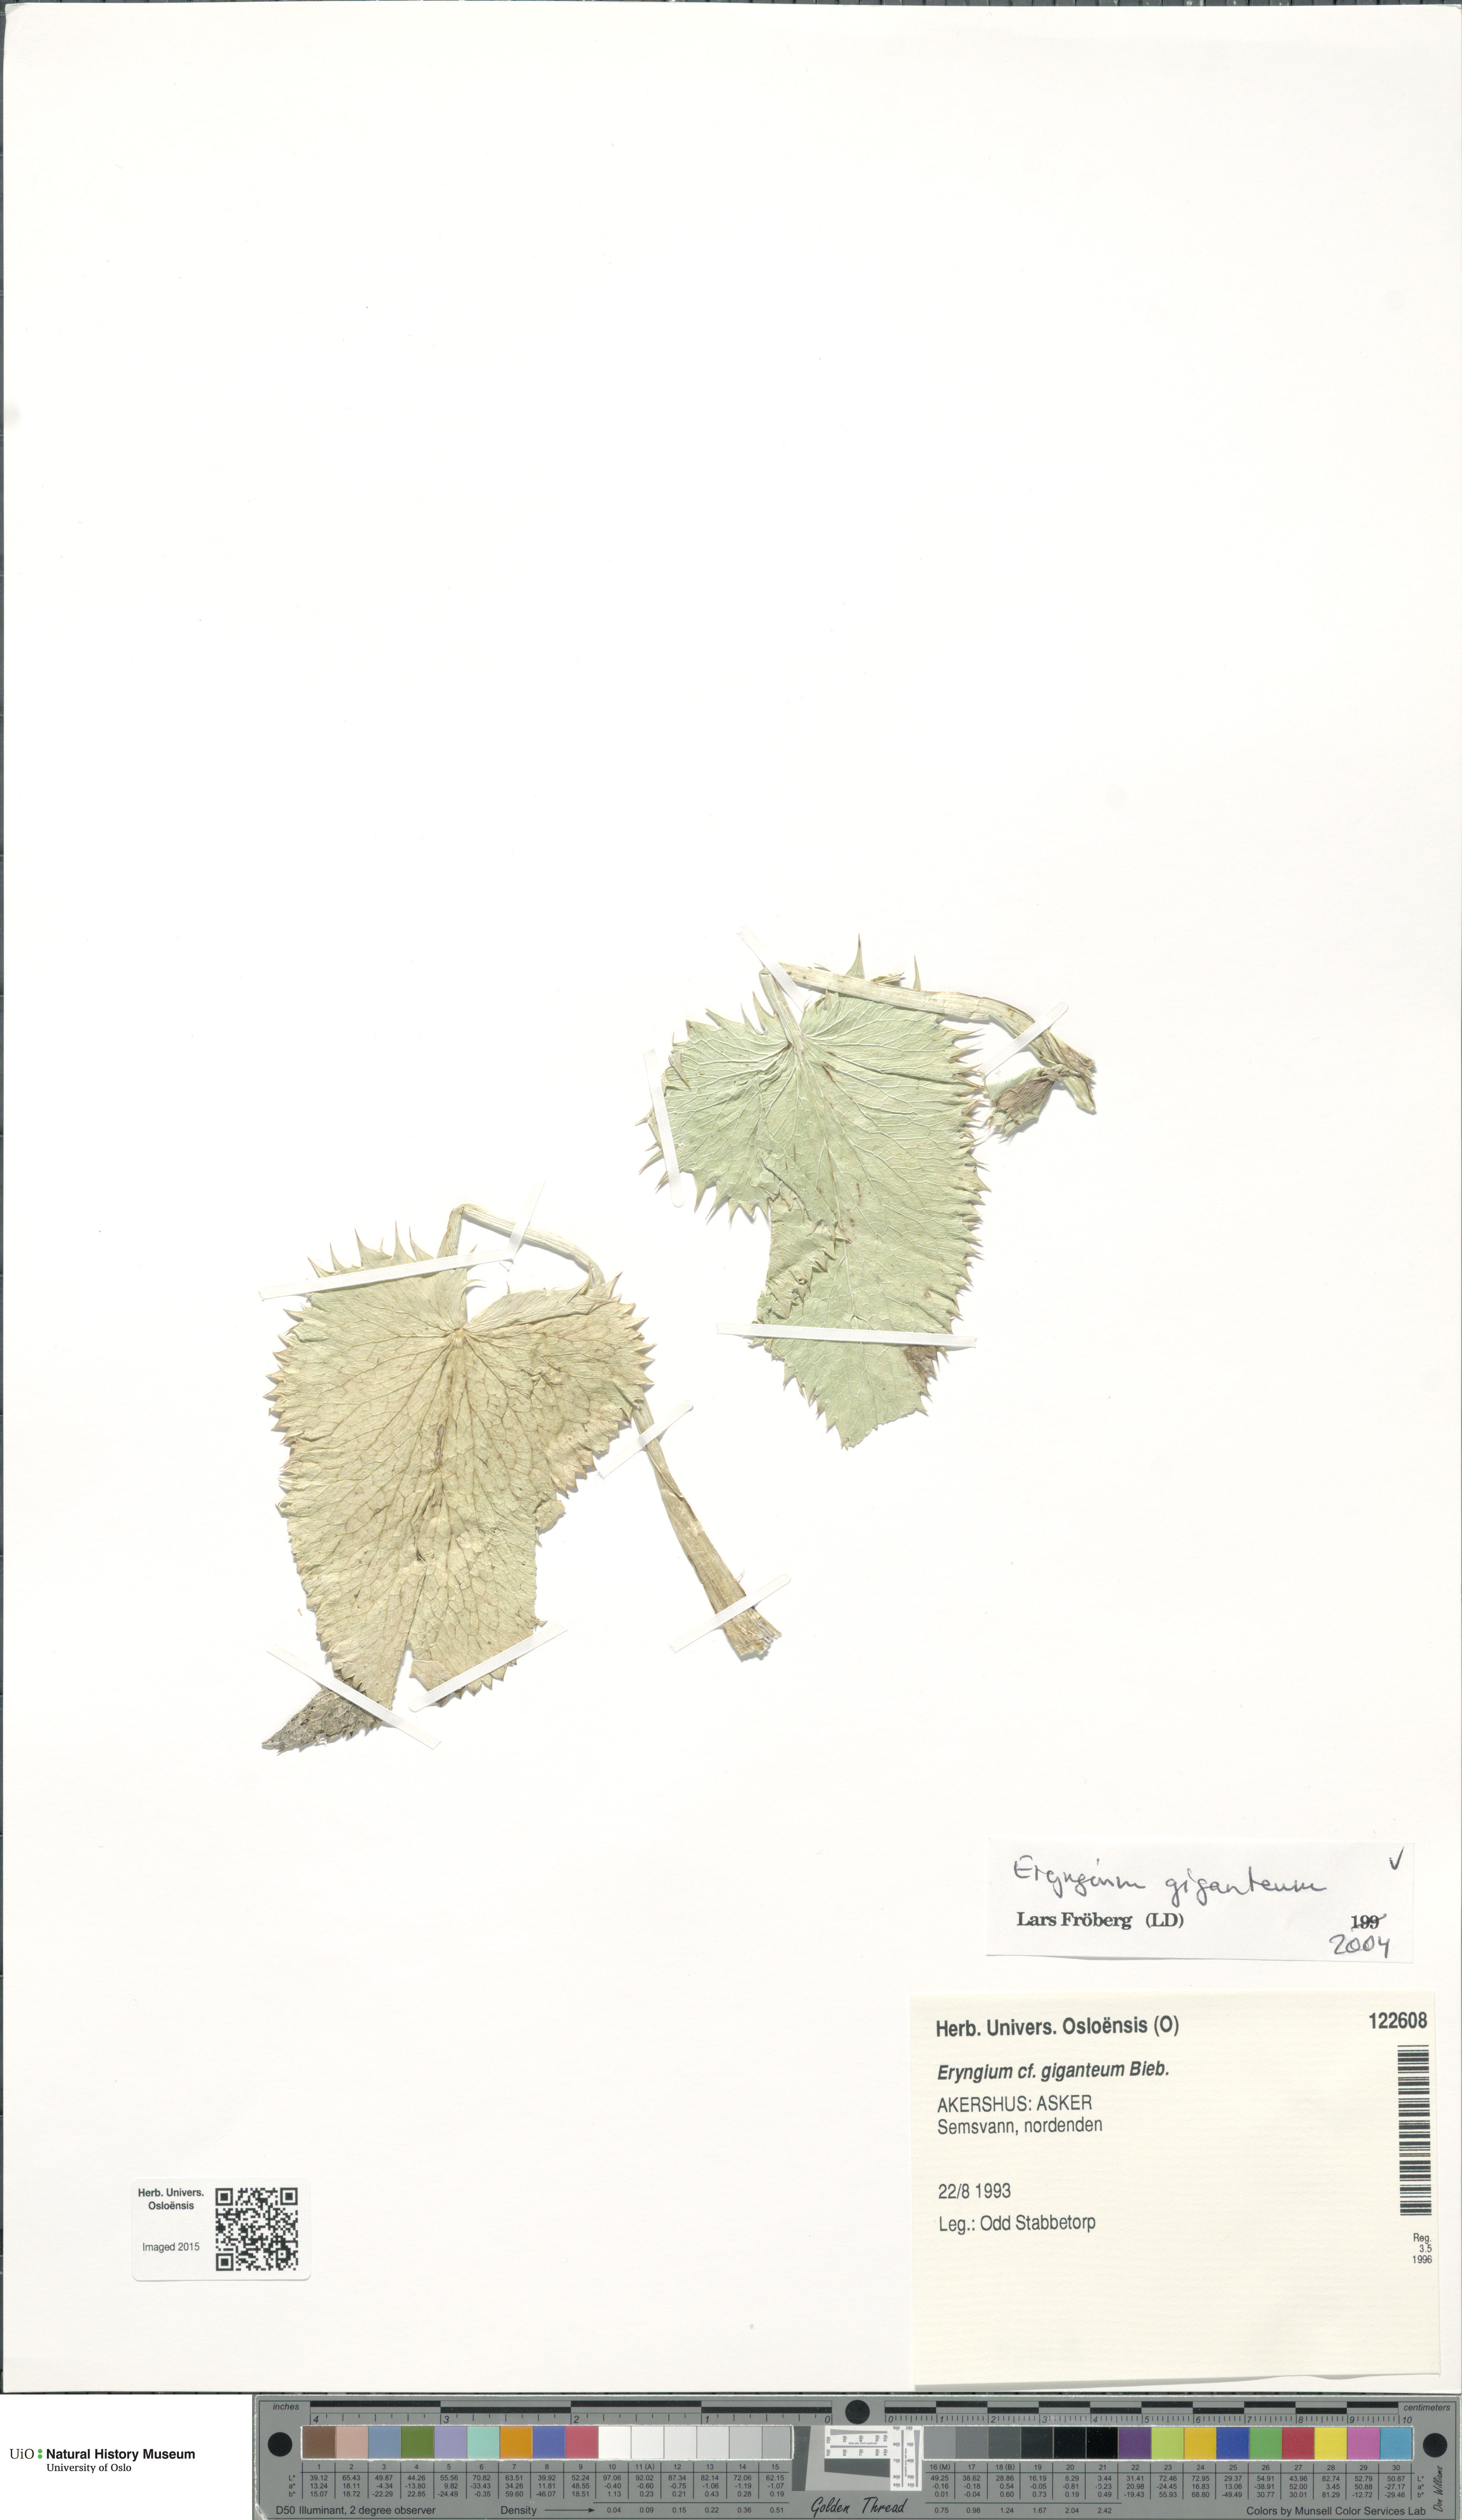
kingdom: Plantae
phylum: Tracheophyta
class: Magnoliopsida
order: Apiales
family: Apiaceae
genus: Eryngium
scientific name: Eryngium giganteum
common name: Tall eryngo
